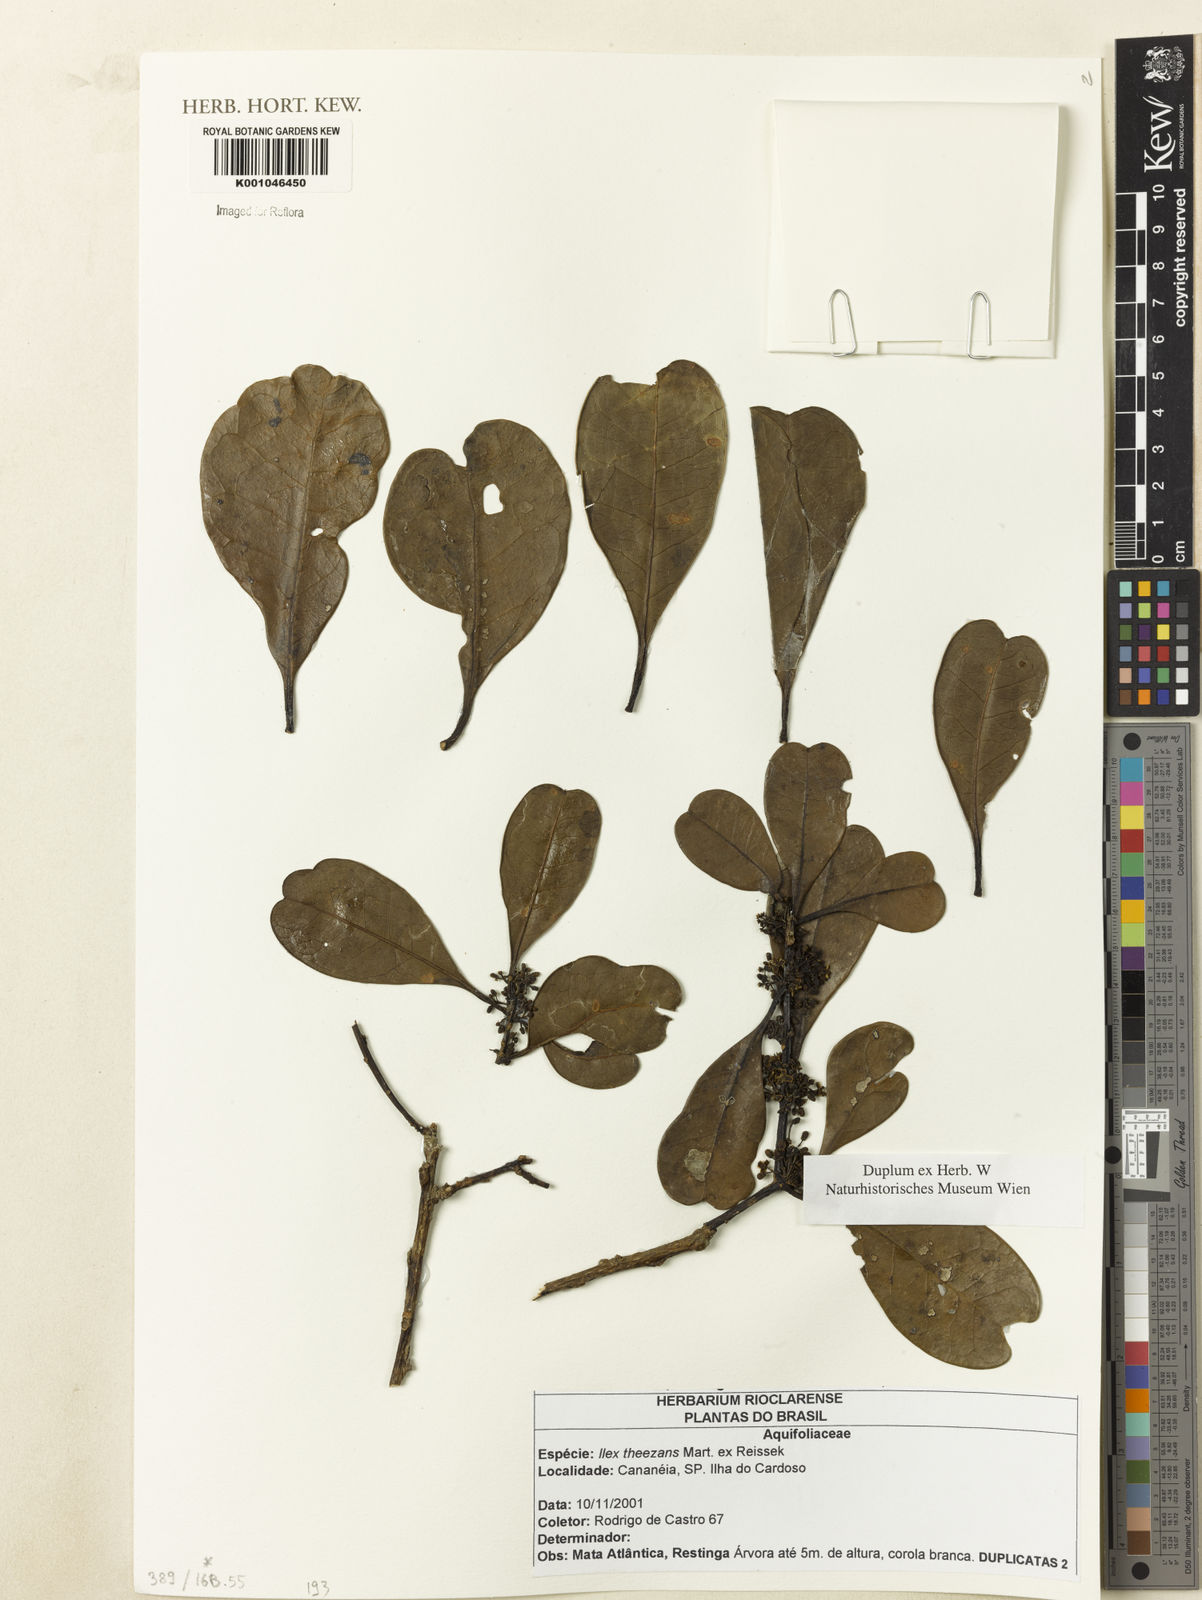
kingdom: Plantae
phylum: Tracheophyta
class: Magnoliopsida
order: Aquifoliales
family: Aquifoliaceae
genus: Ilex
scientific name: Ilex paraguariensis
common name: Paraguay tea
